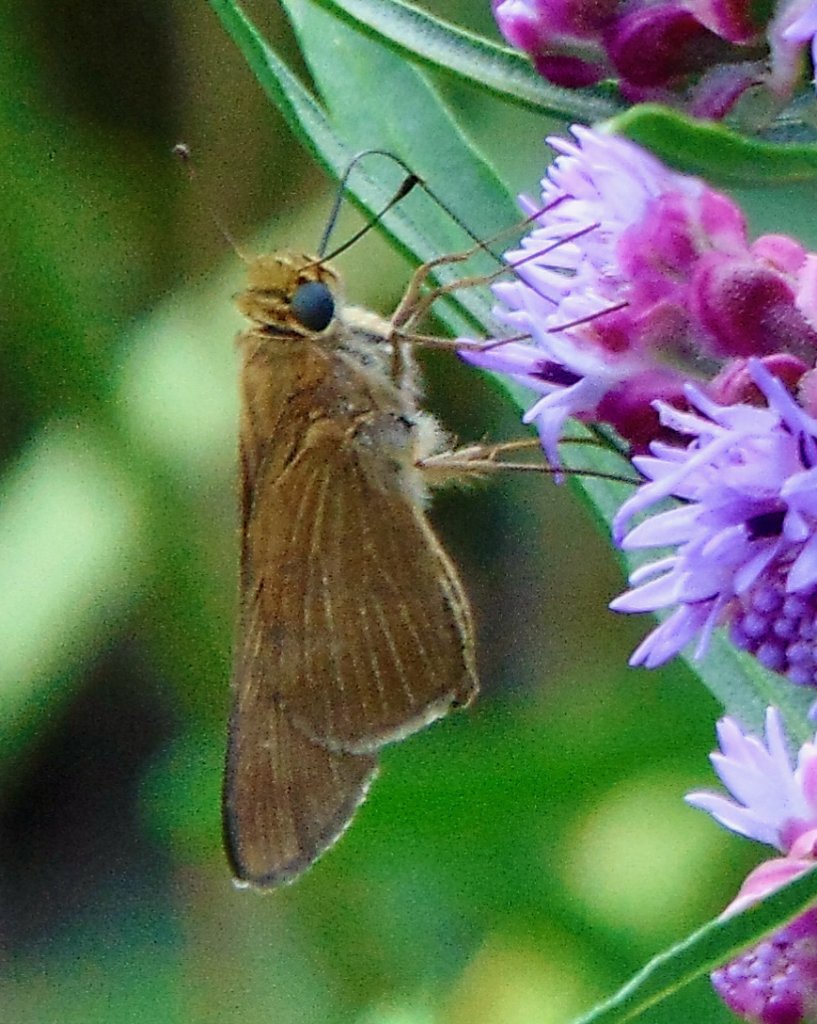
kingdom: Animalia
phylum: Arthropoda
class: Insecta
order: Lepidoptera
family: Hesperiidae
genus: Panoquina
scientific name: Panoquina ocola
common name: Ocola Skipper
